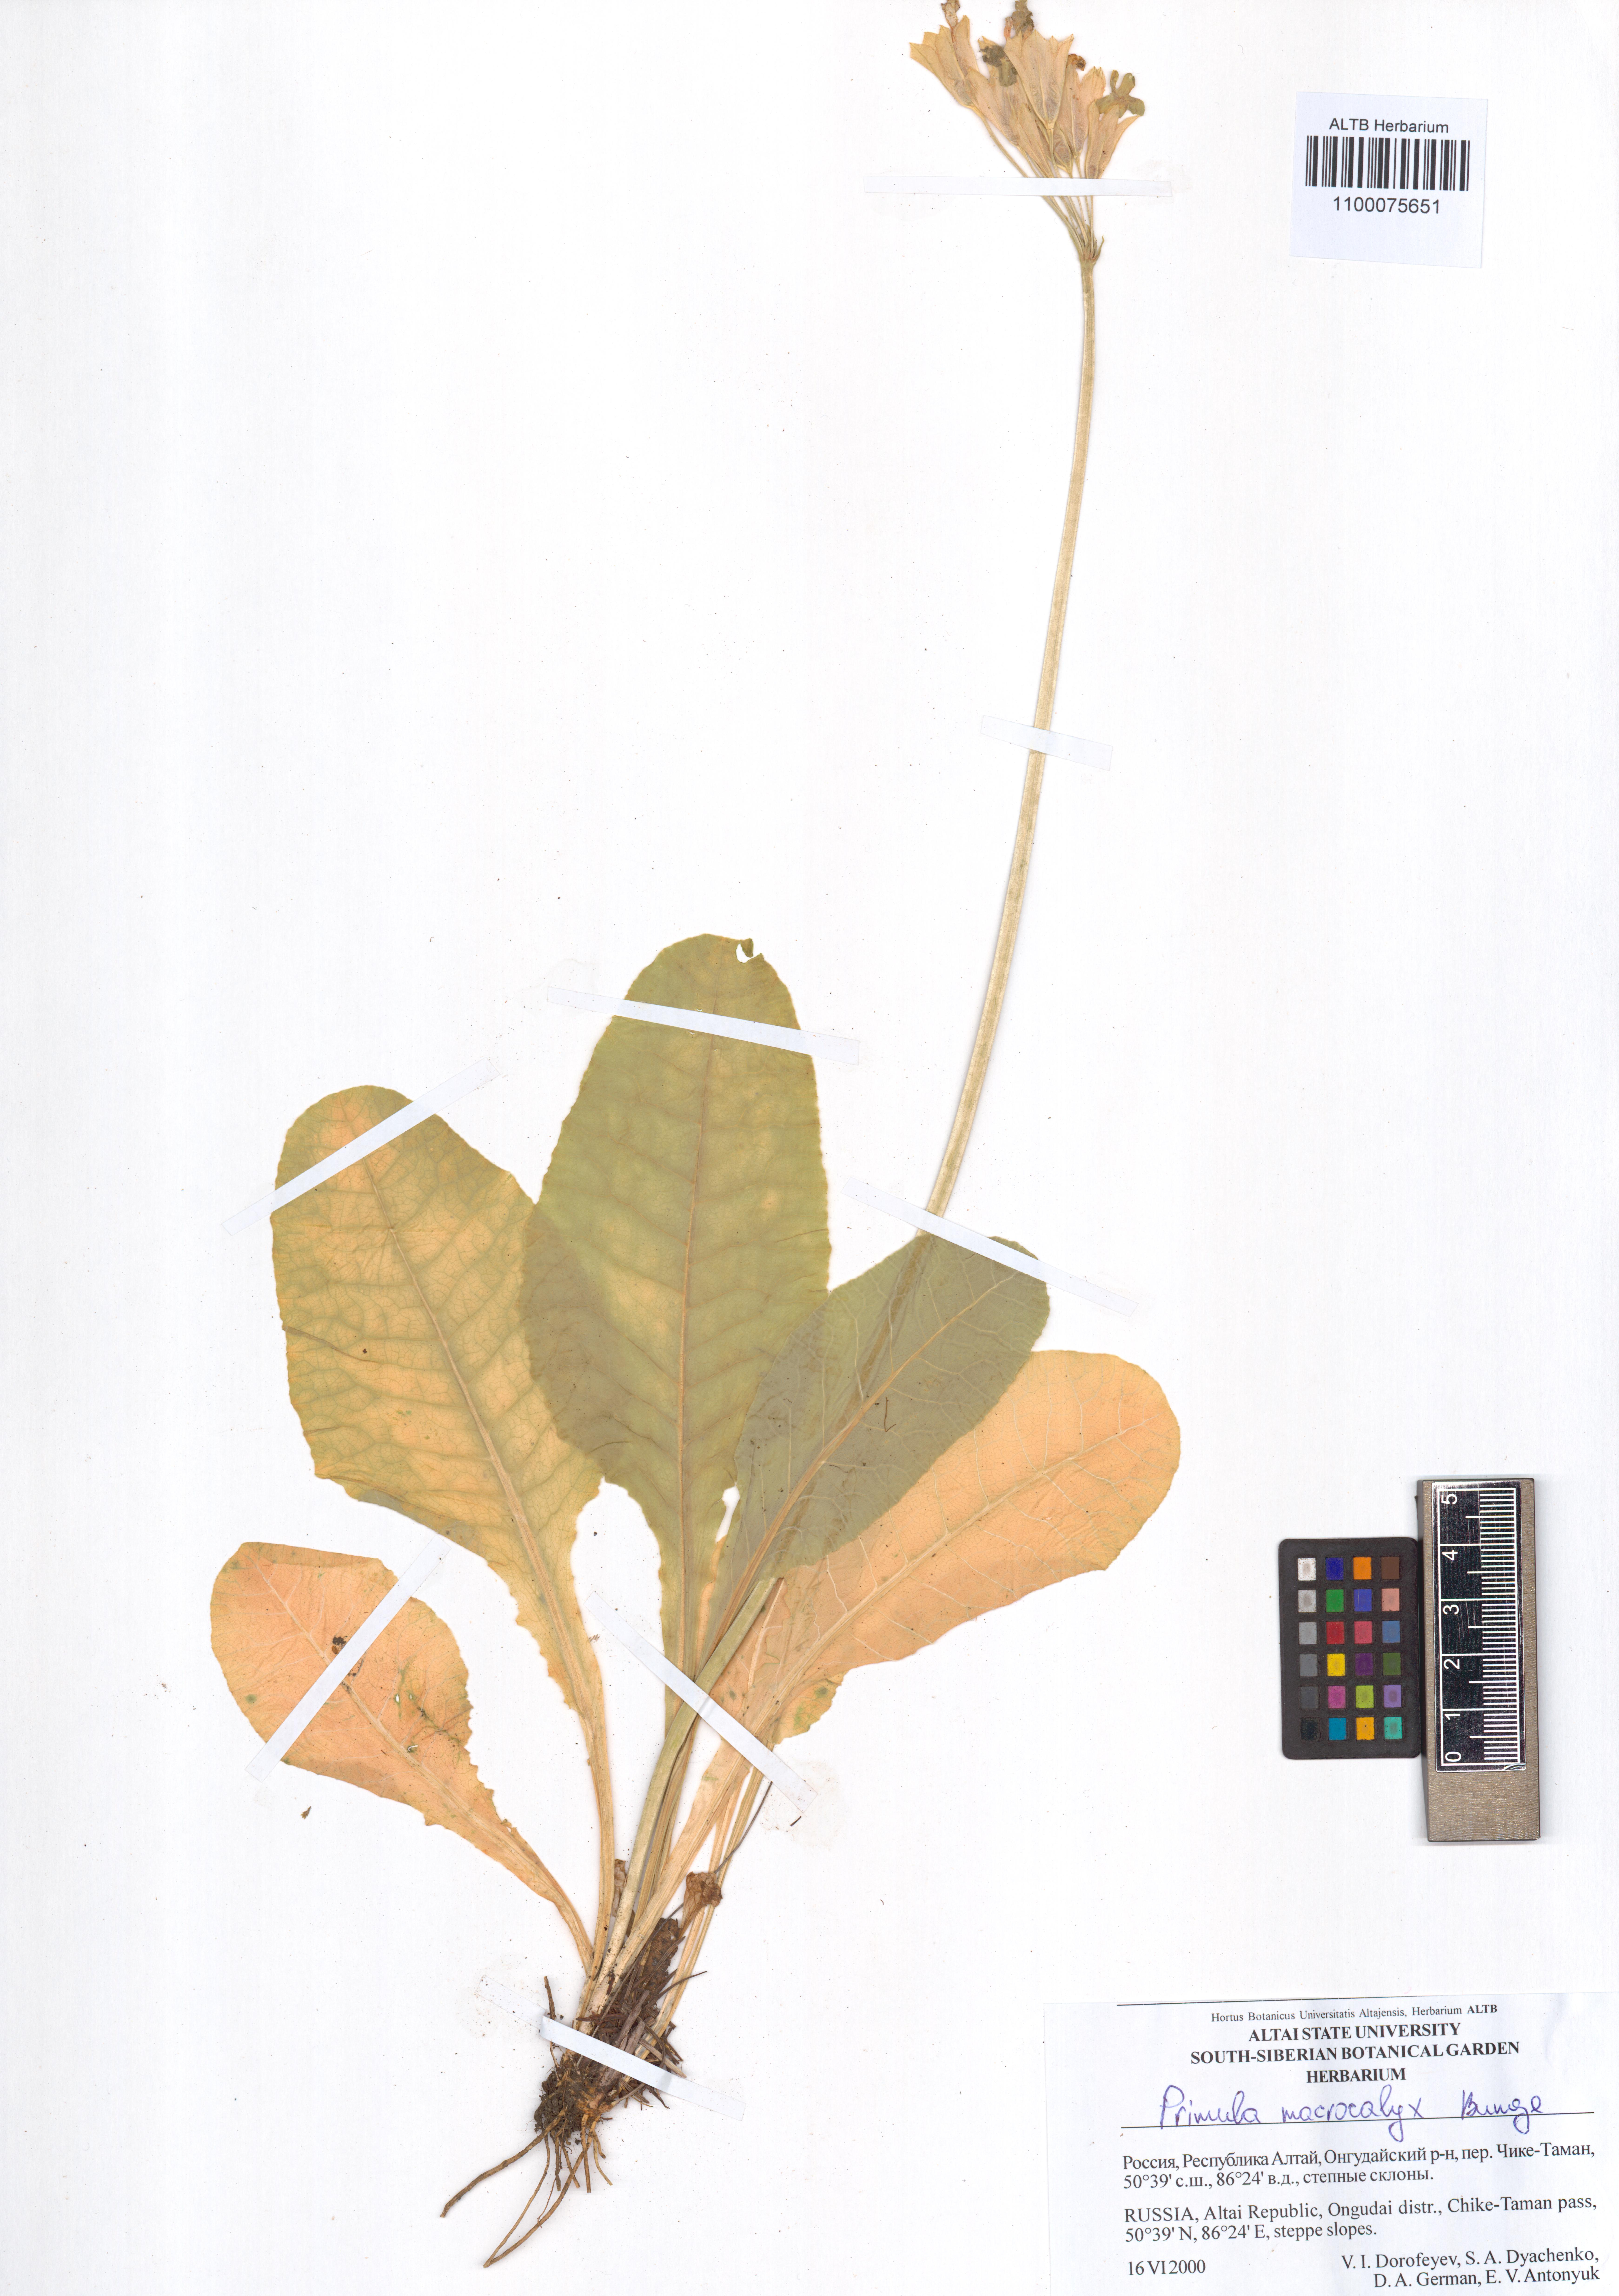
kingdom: Plantae
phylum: Tracheophyta
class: Magnoliopsida
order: Ericales
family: Primulaceae
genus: Primula
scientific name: Primula veris
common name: Cowslip
